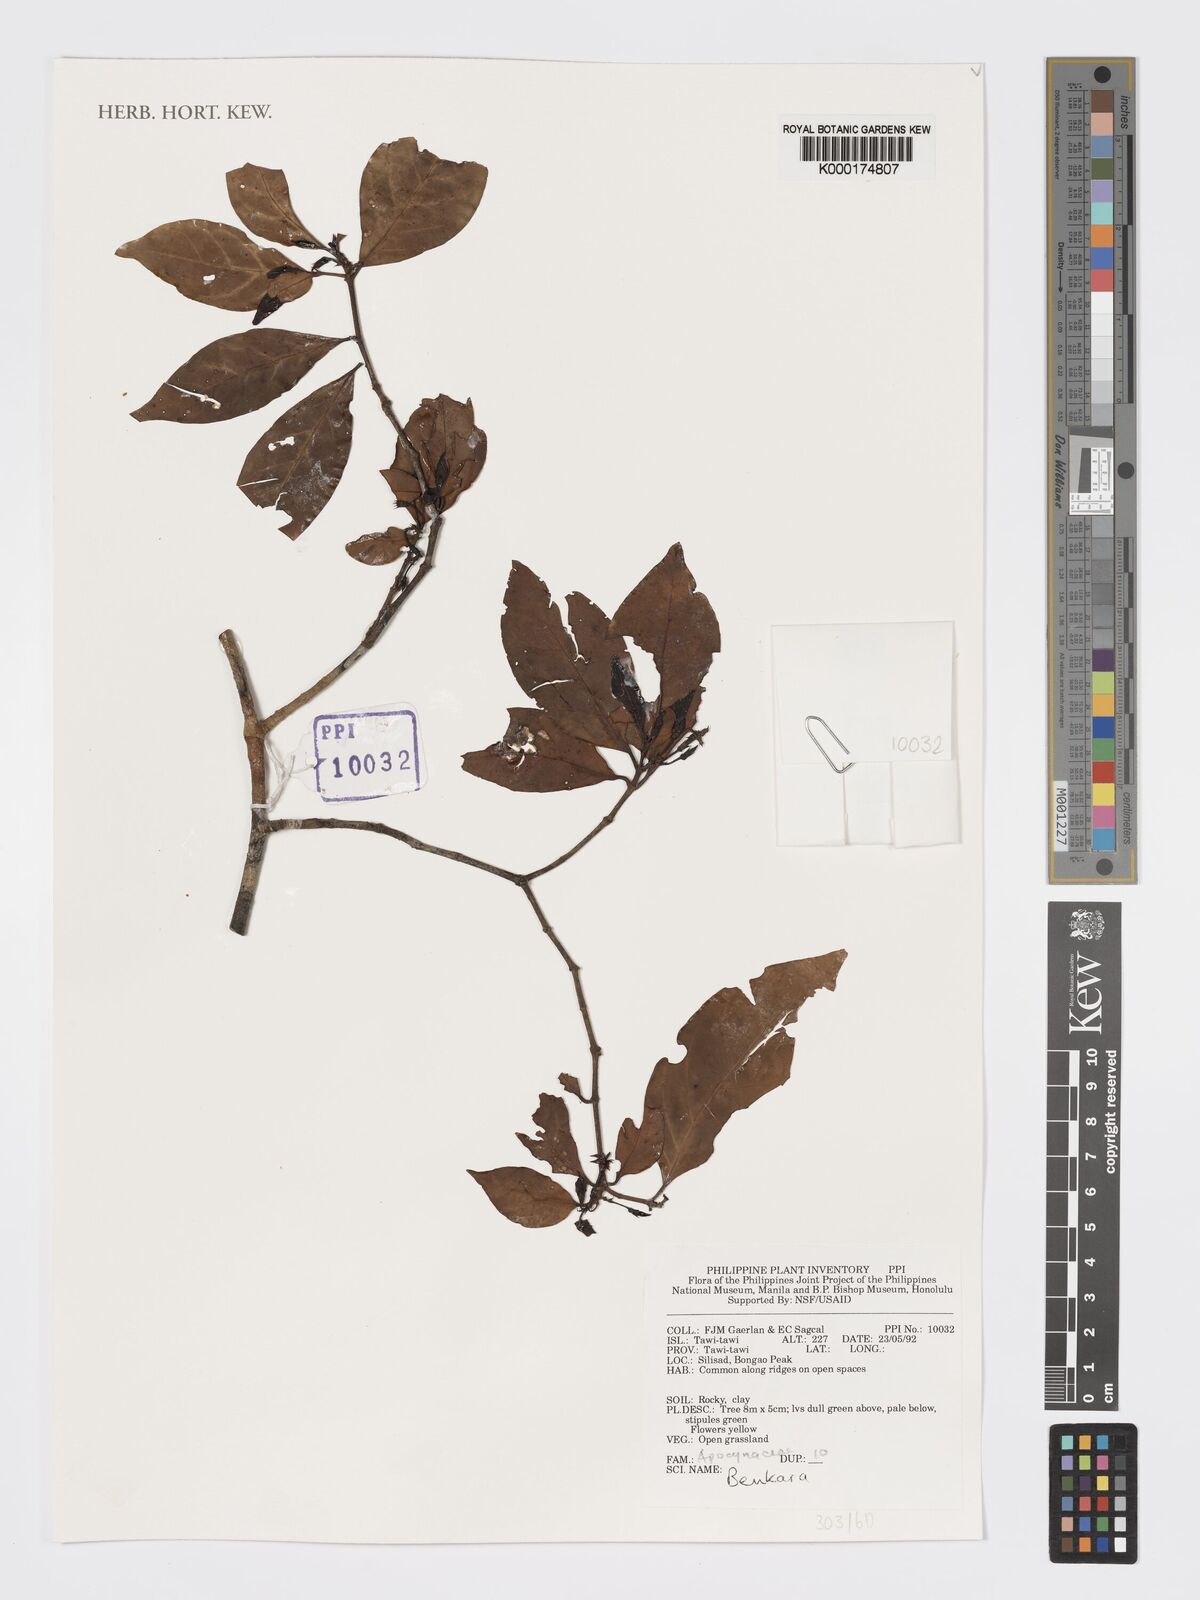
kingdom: Plantae
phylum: Tracheophyta
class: Magnoliopsida
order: Gentianales
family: Rubiaceae
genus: Benkara
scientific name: Benkara
